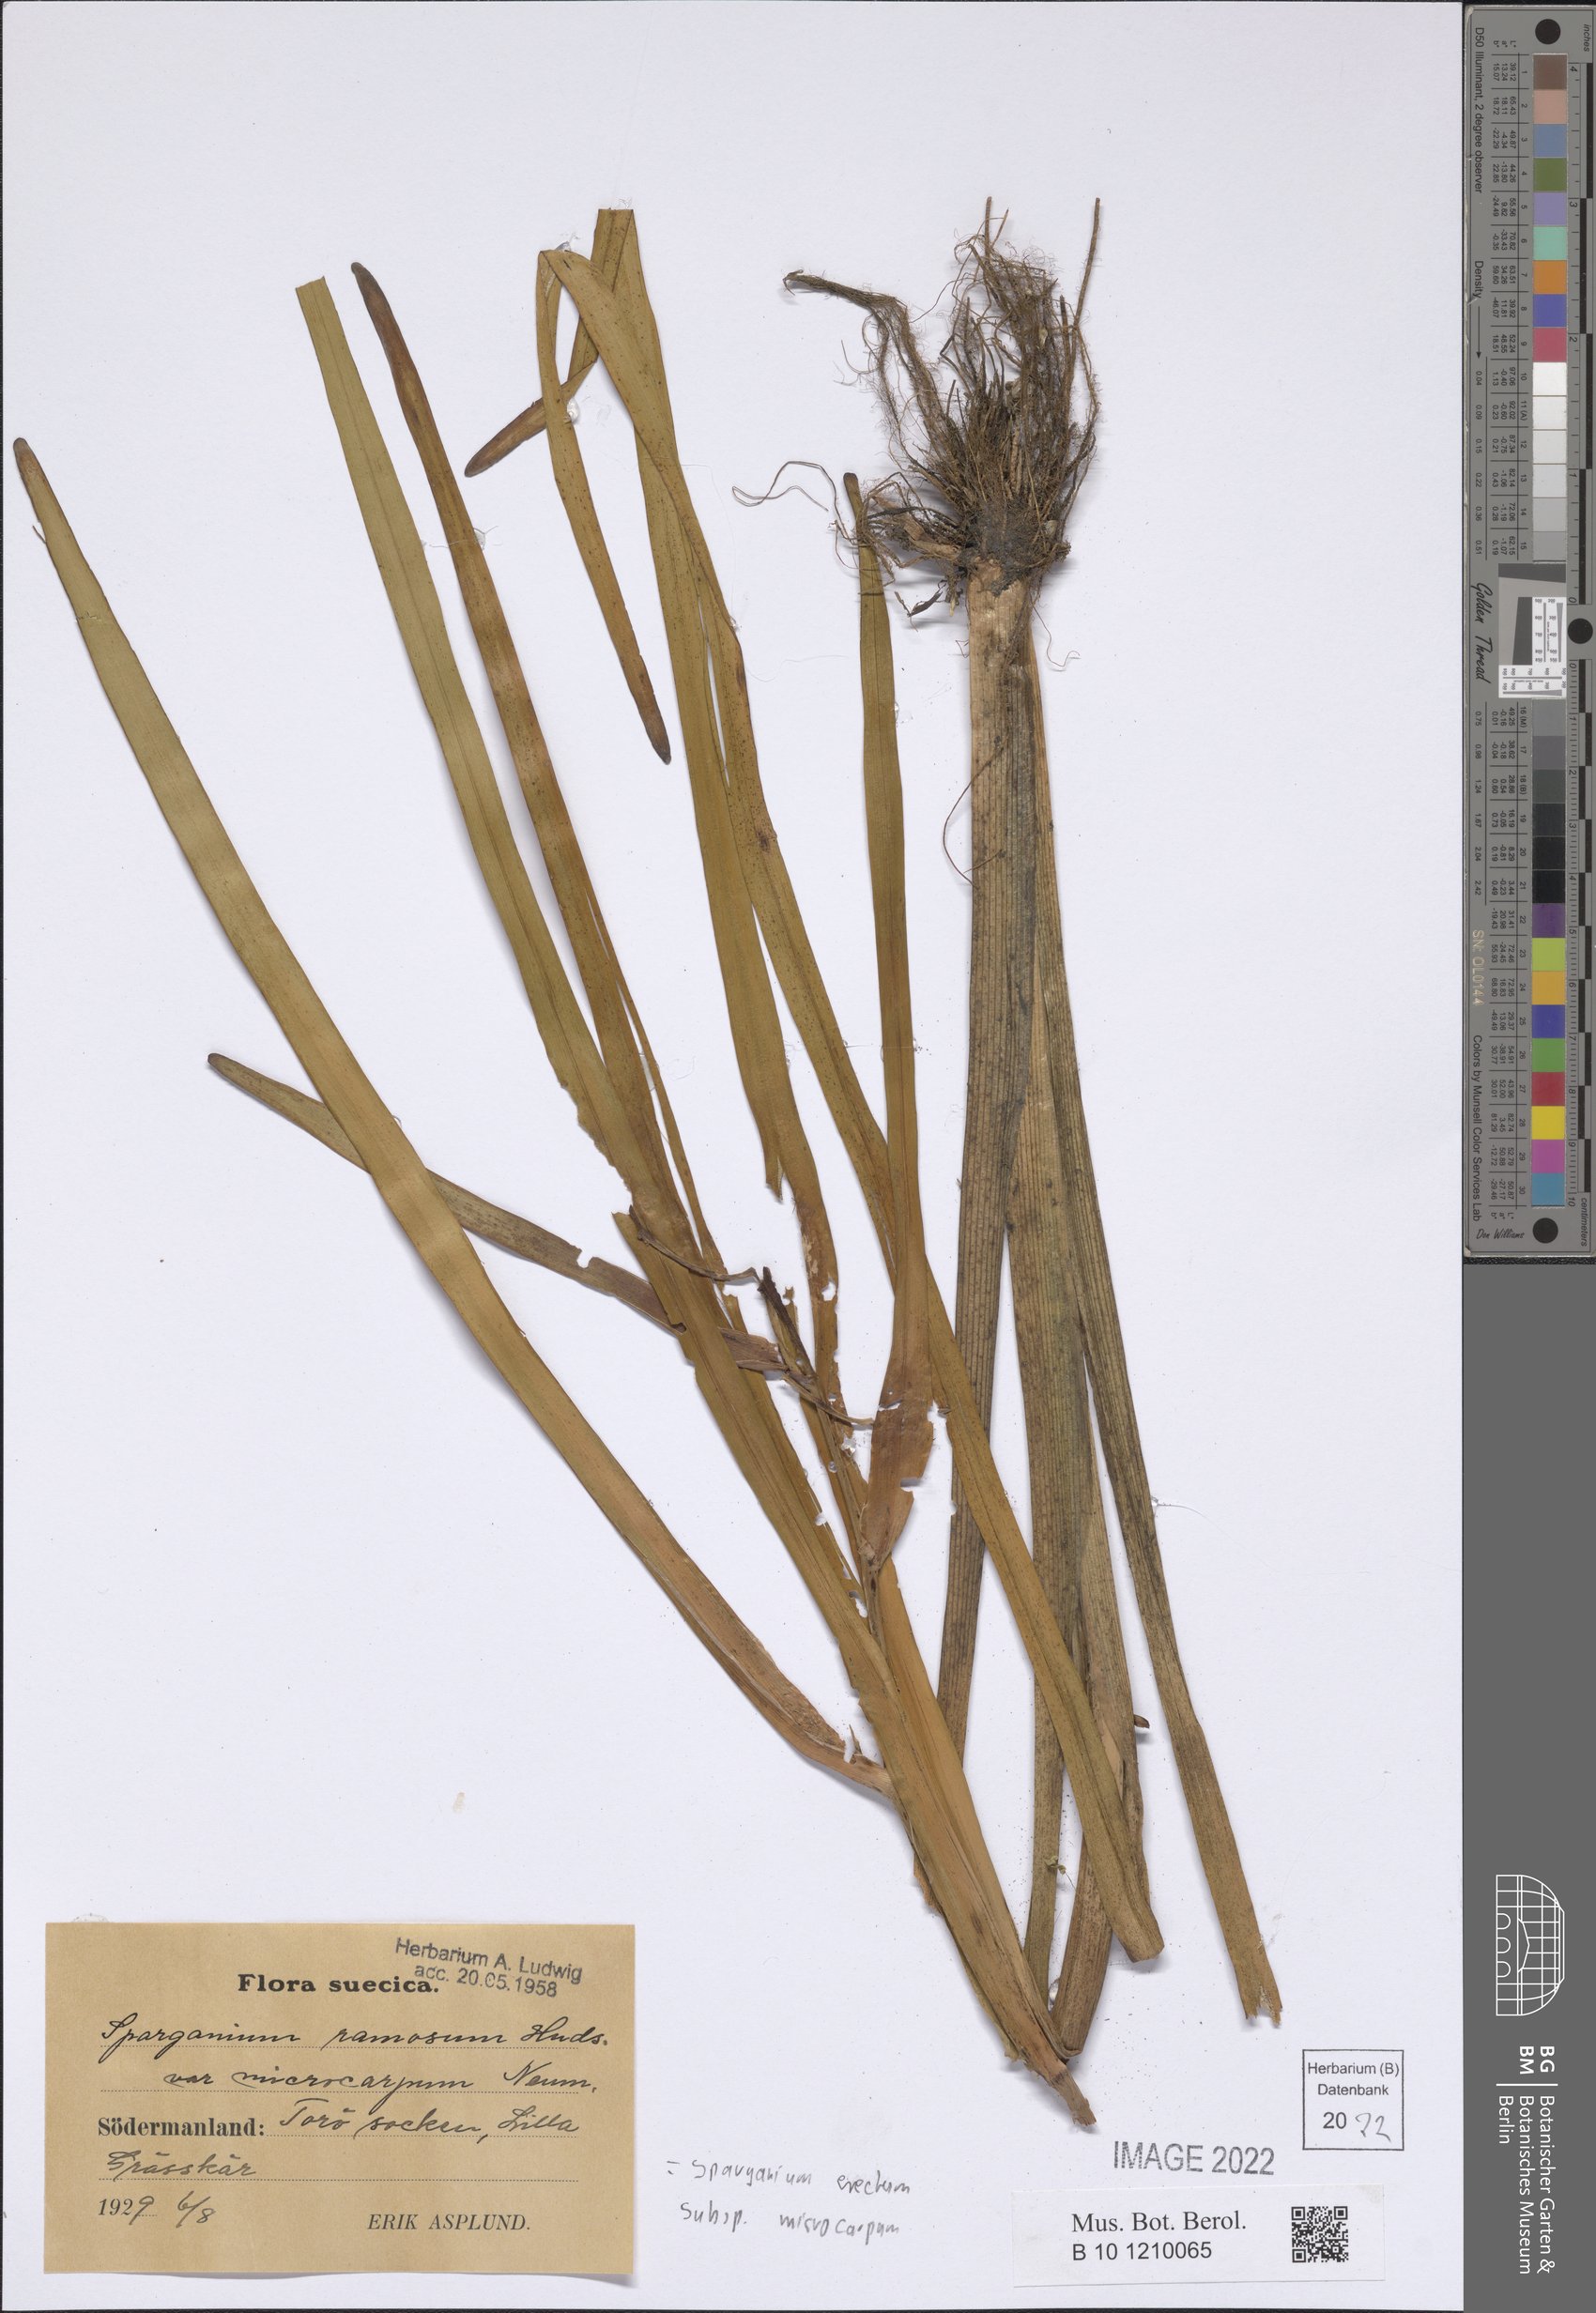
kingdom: Plantae
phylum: Tracheophyta
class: Liliopsida
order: Poales
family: Typhaceae
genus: Sparganium
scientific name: Sparganium erectum
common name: Branched bur-reed
